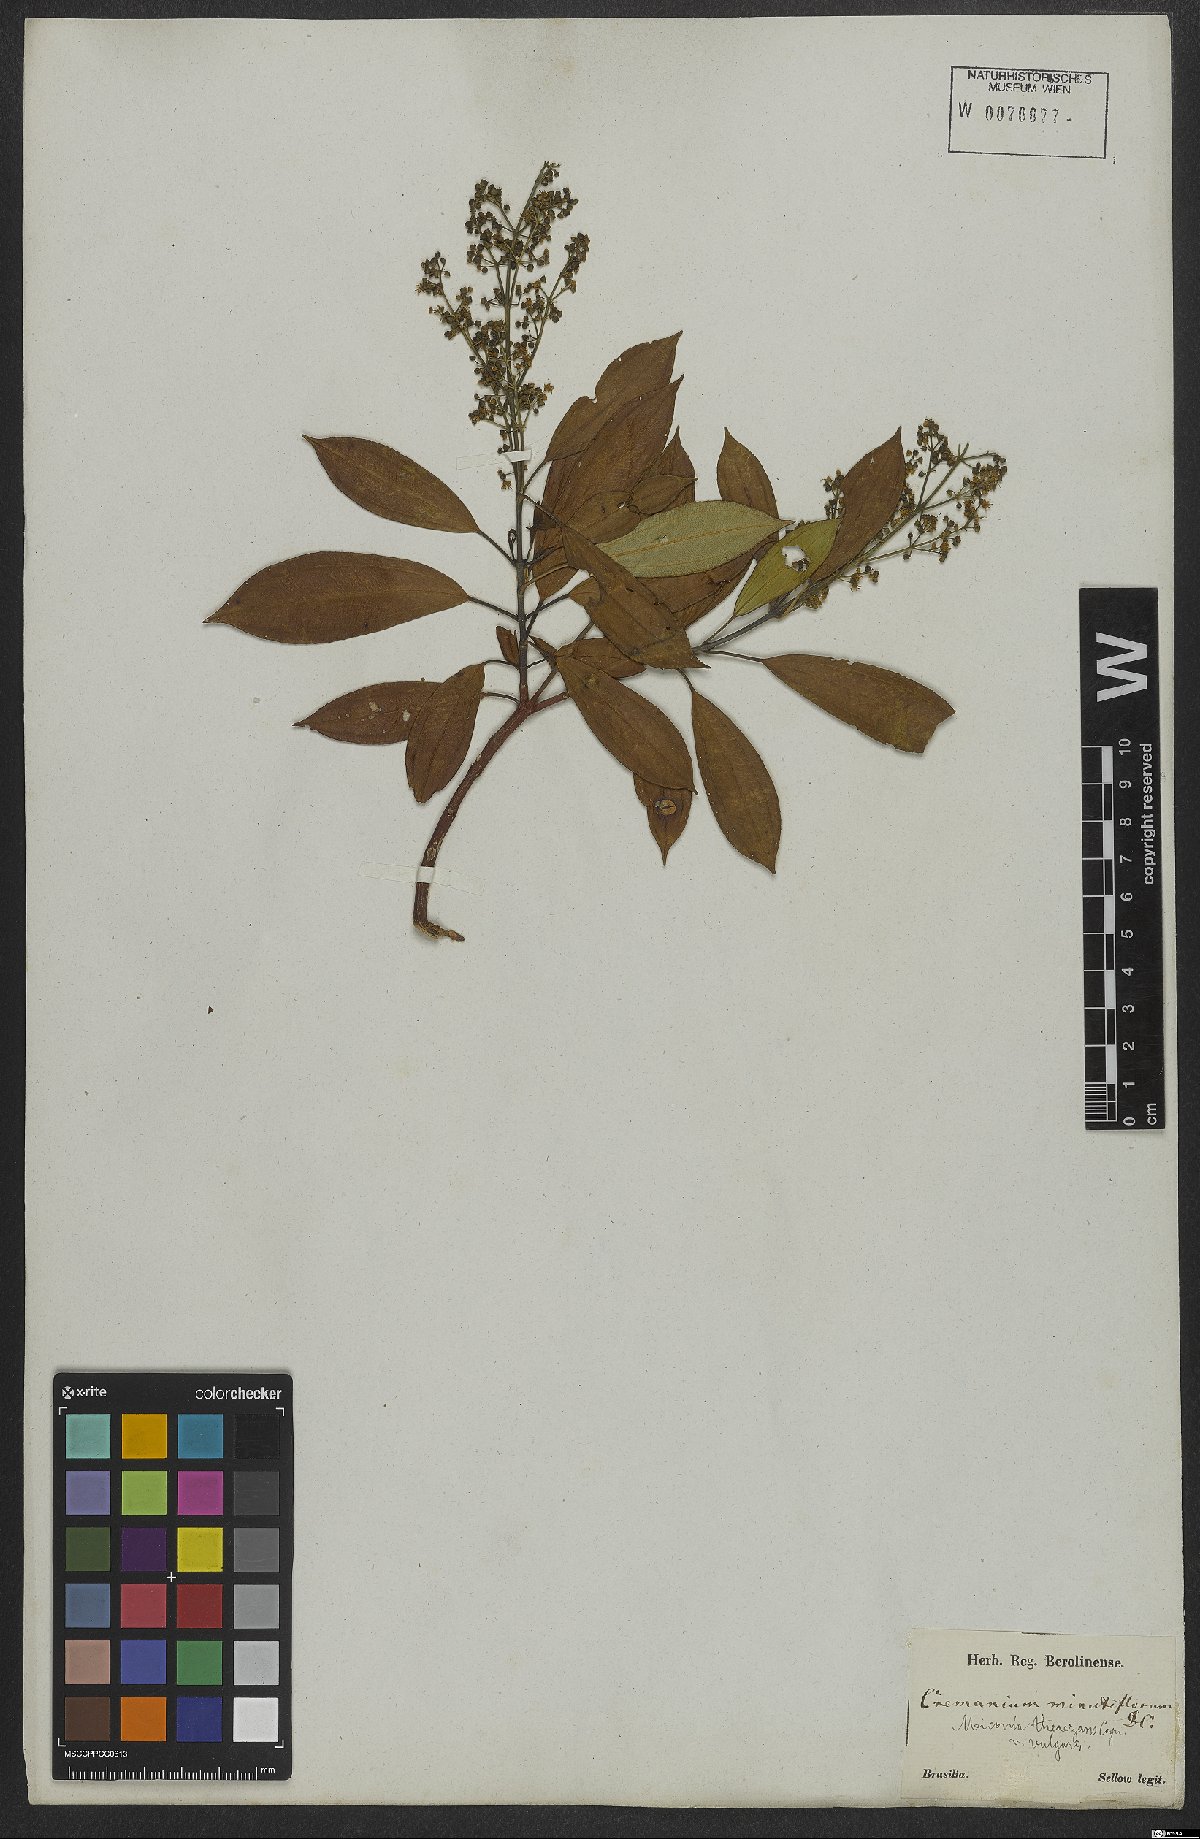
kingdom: Plantae
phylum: Tracheophyta
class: Magnoliopsida
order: Myrtales
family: Melastomataceae
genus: Miconia
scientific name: Miconia theizans
